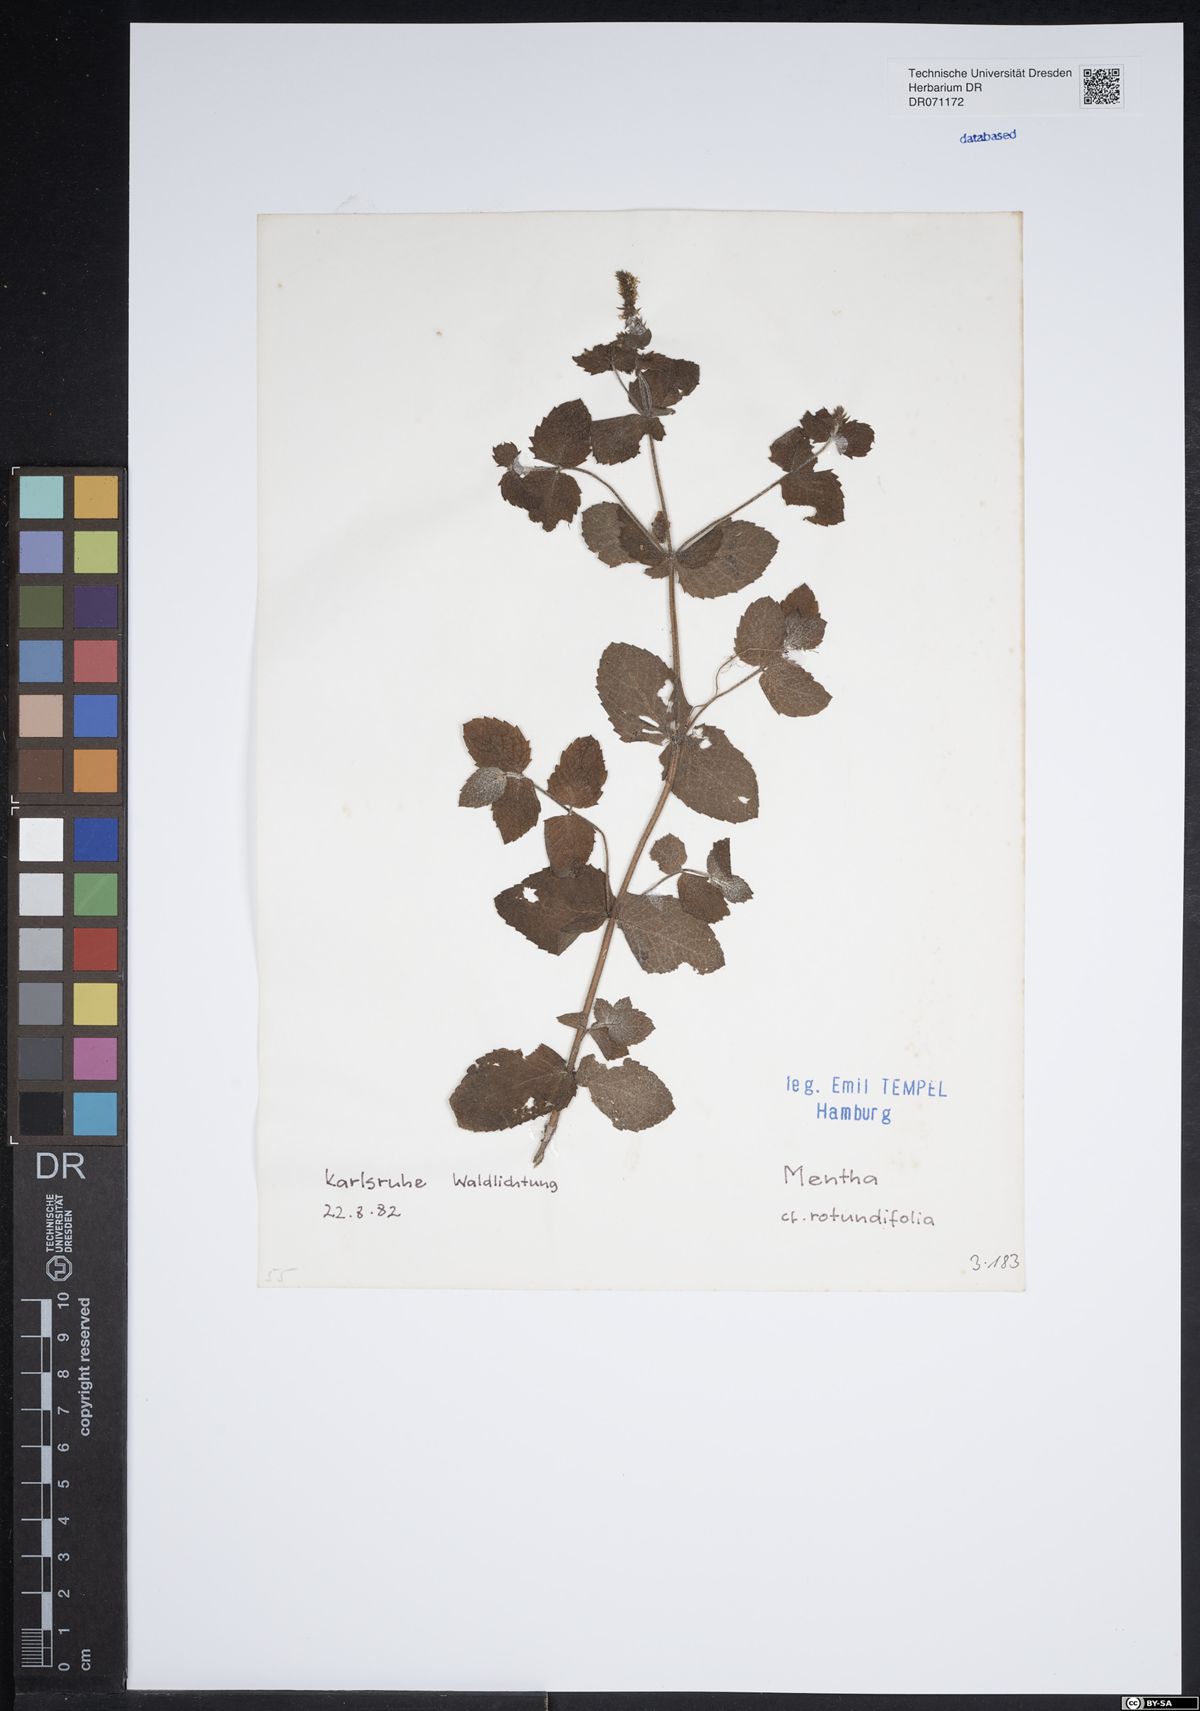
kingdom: Plantae
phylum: Tracheophyta
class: Magnoliopsida
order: Lamiales
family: Lamiaceae
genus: Mentha
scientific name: Mentha rotundifolia
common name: Bigleaf mint
